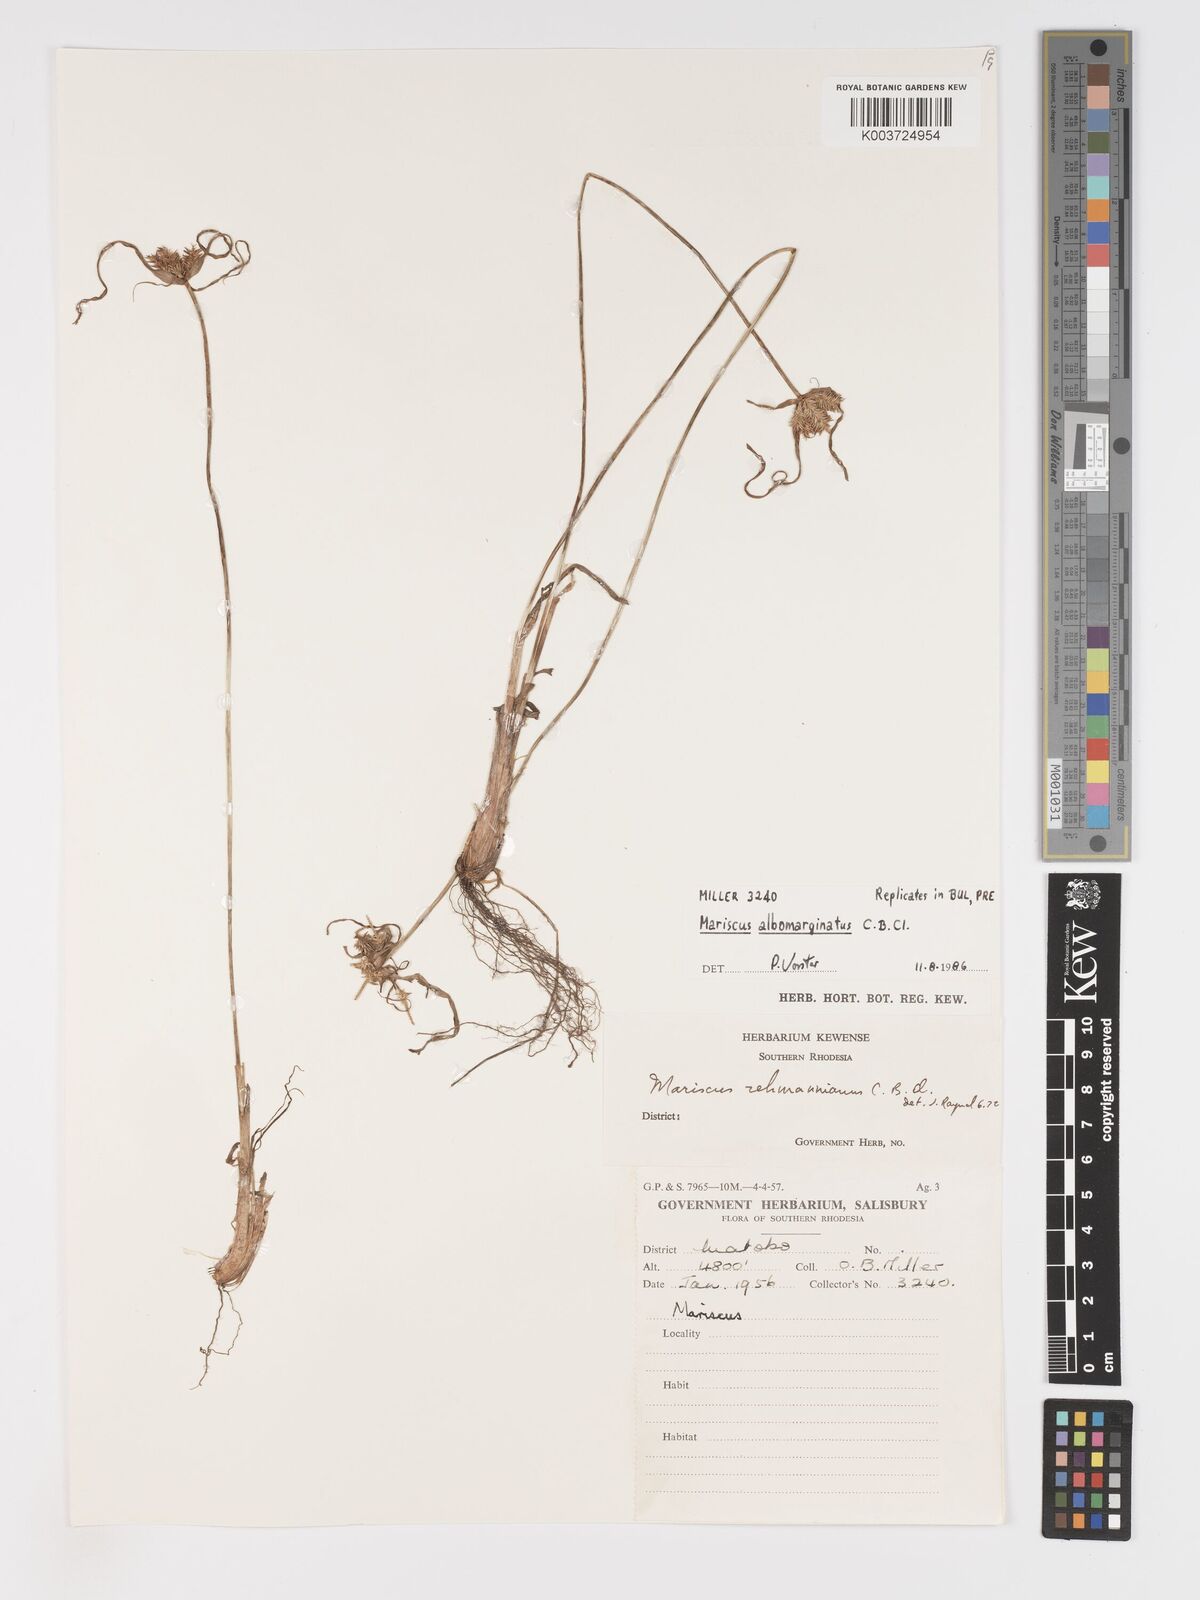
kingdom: Plantae
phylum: Tracheophyta
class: Liliopsida
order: Poales
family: Cyperaceae
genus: Cyperus
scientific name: Cyperus indecorus
